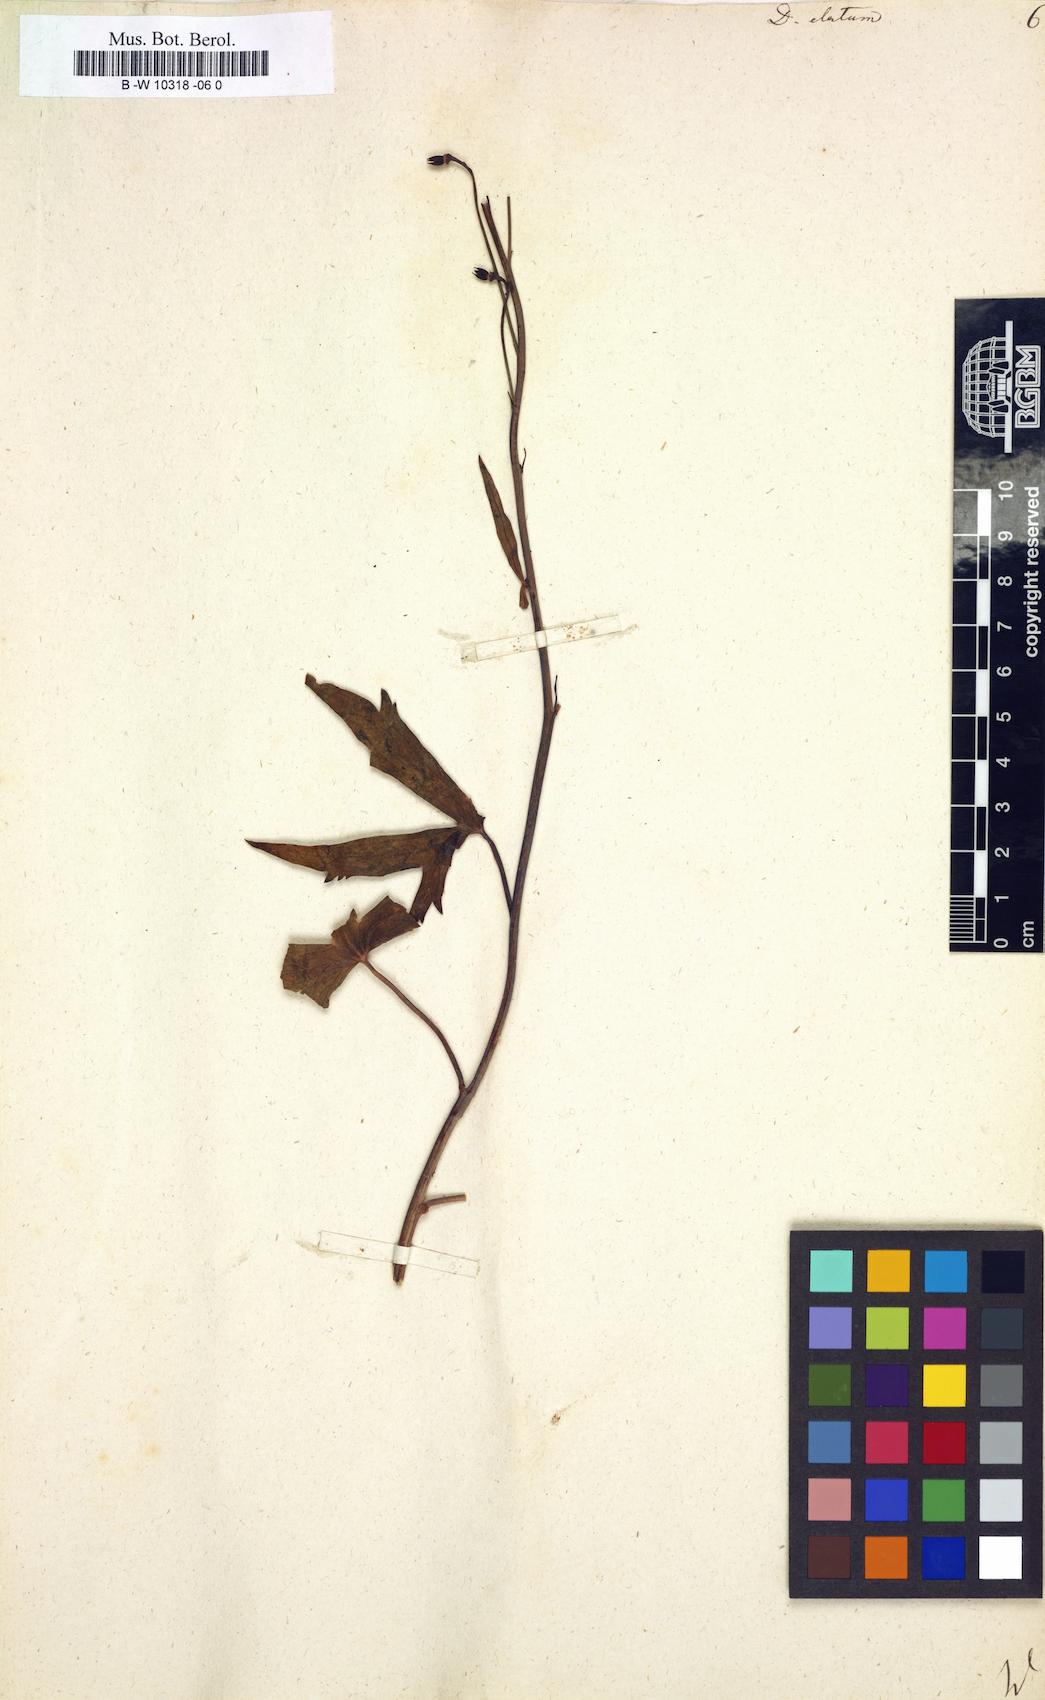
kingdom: Plantae
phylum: Tracheophyta
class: Magnoliopsida
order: Ranunculales
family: Ranunculaceae
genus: Delphinium
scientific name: Delphinium elatum
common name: Candle larkspur
